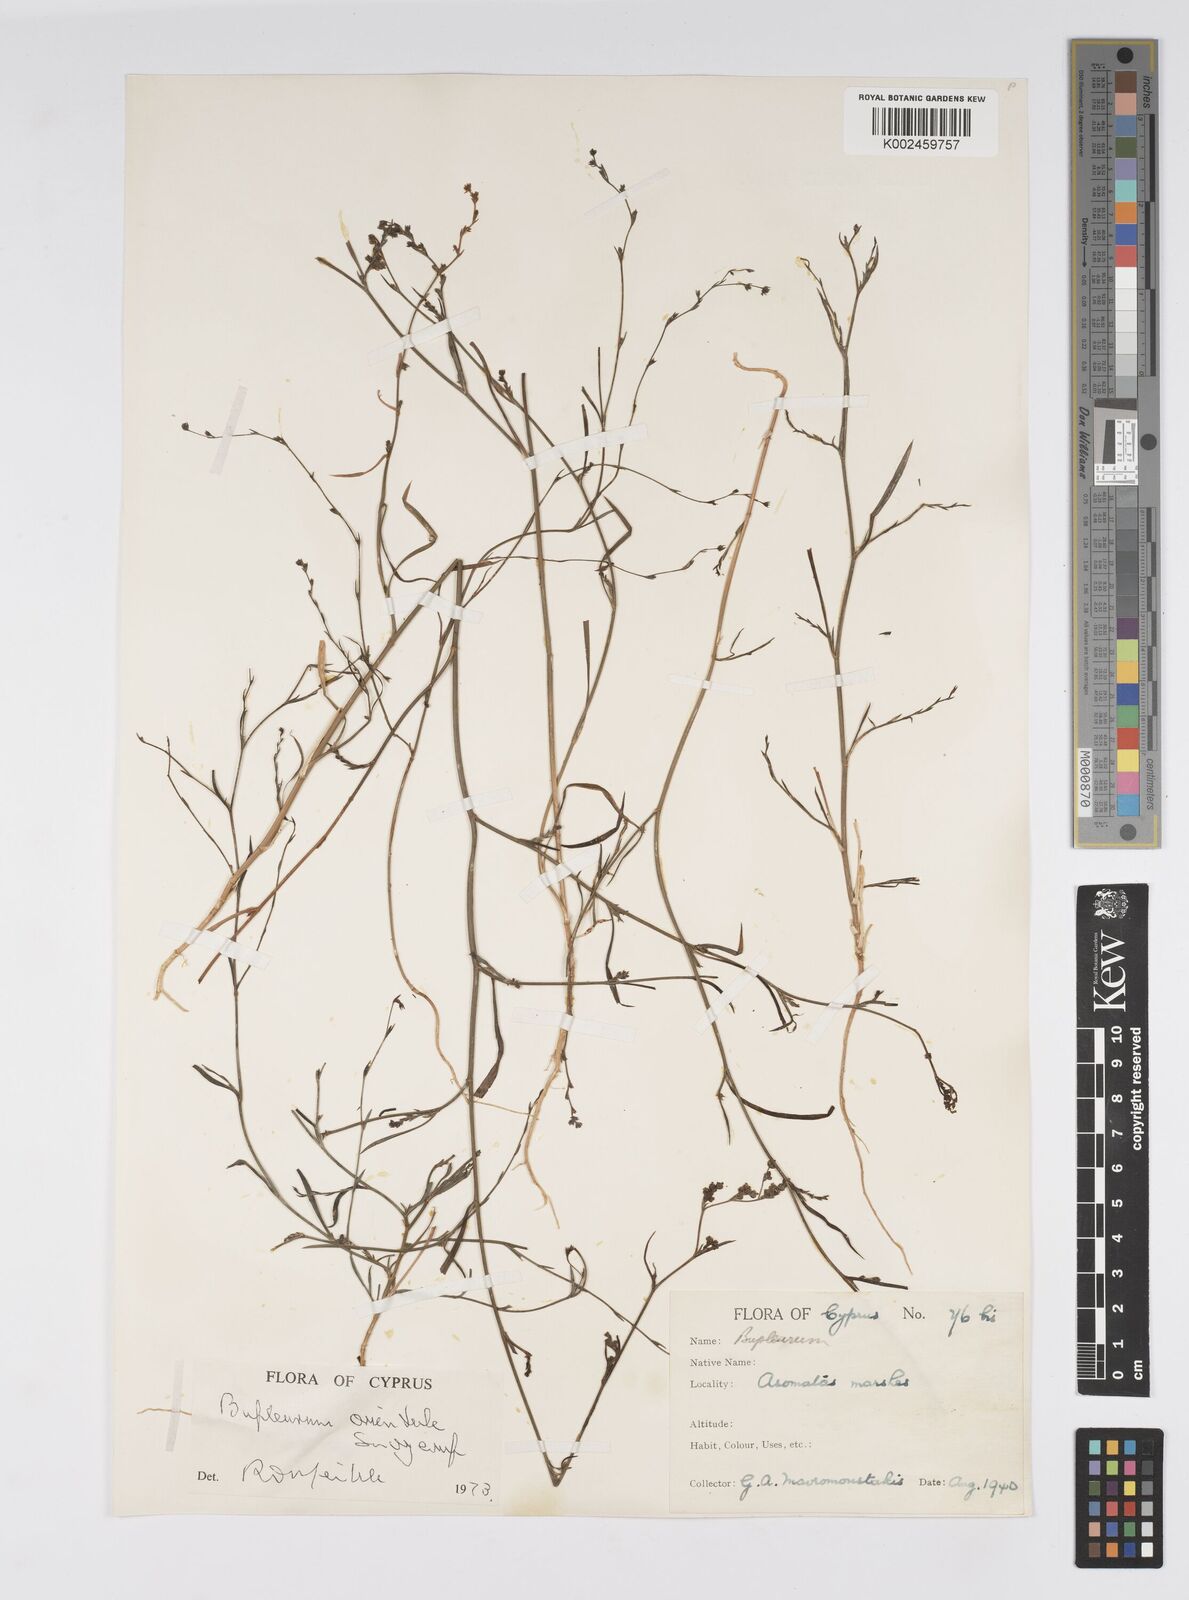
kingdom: Plantae
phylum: Tracheophyta
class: Magnoliopsida
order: Apiales
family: Apiaceae
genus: Bupleurum
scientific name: Bupleurum orientale
